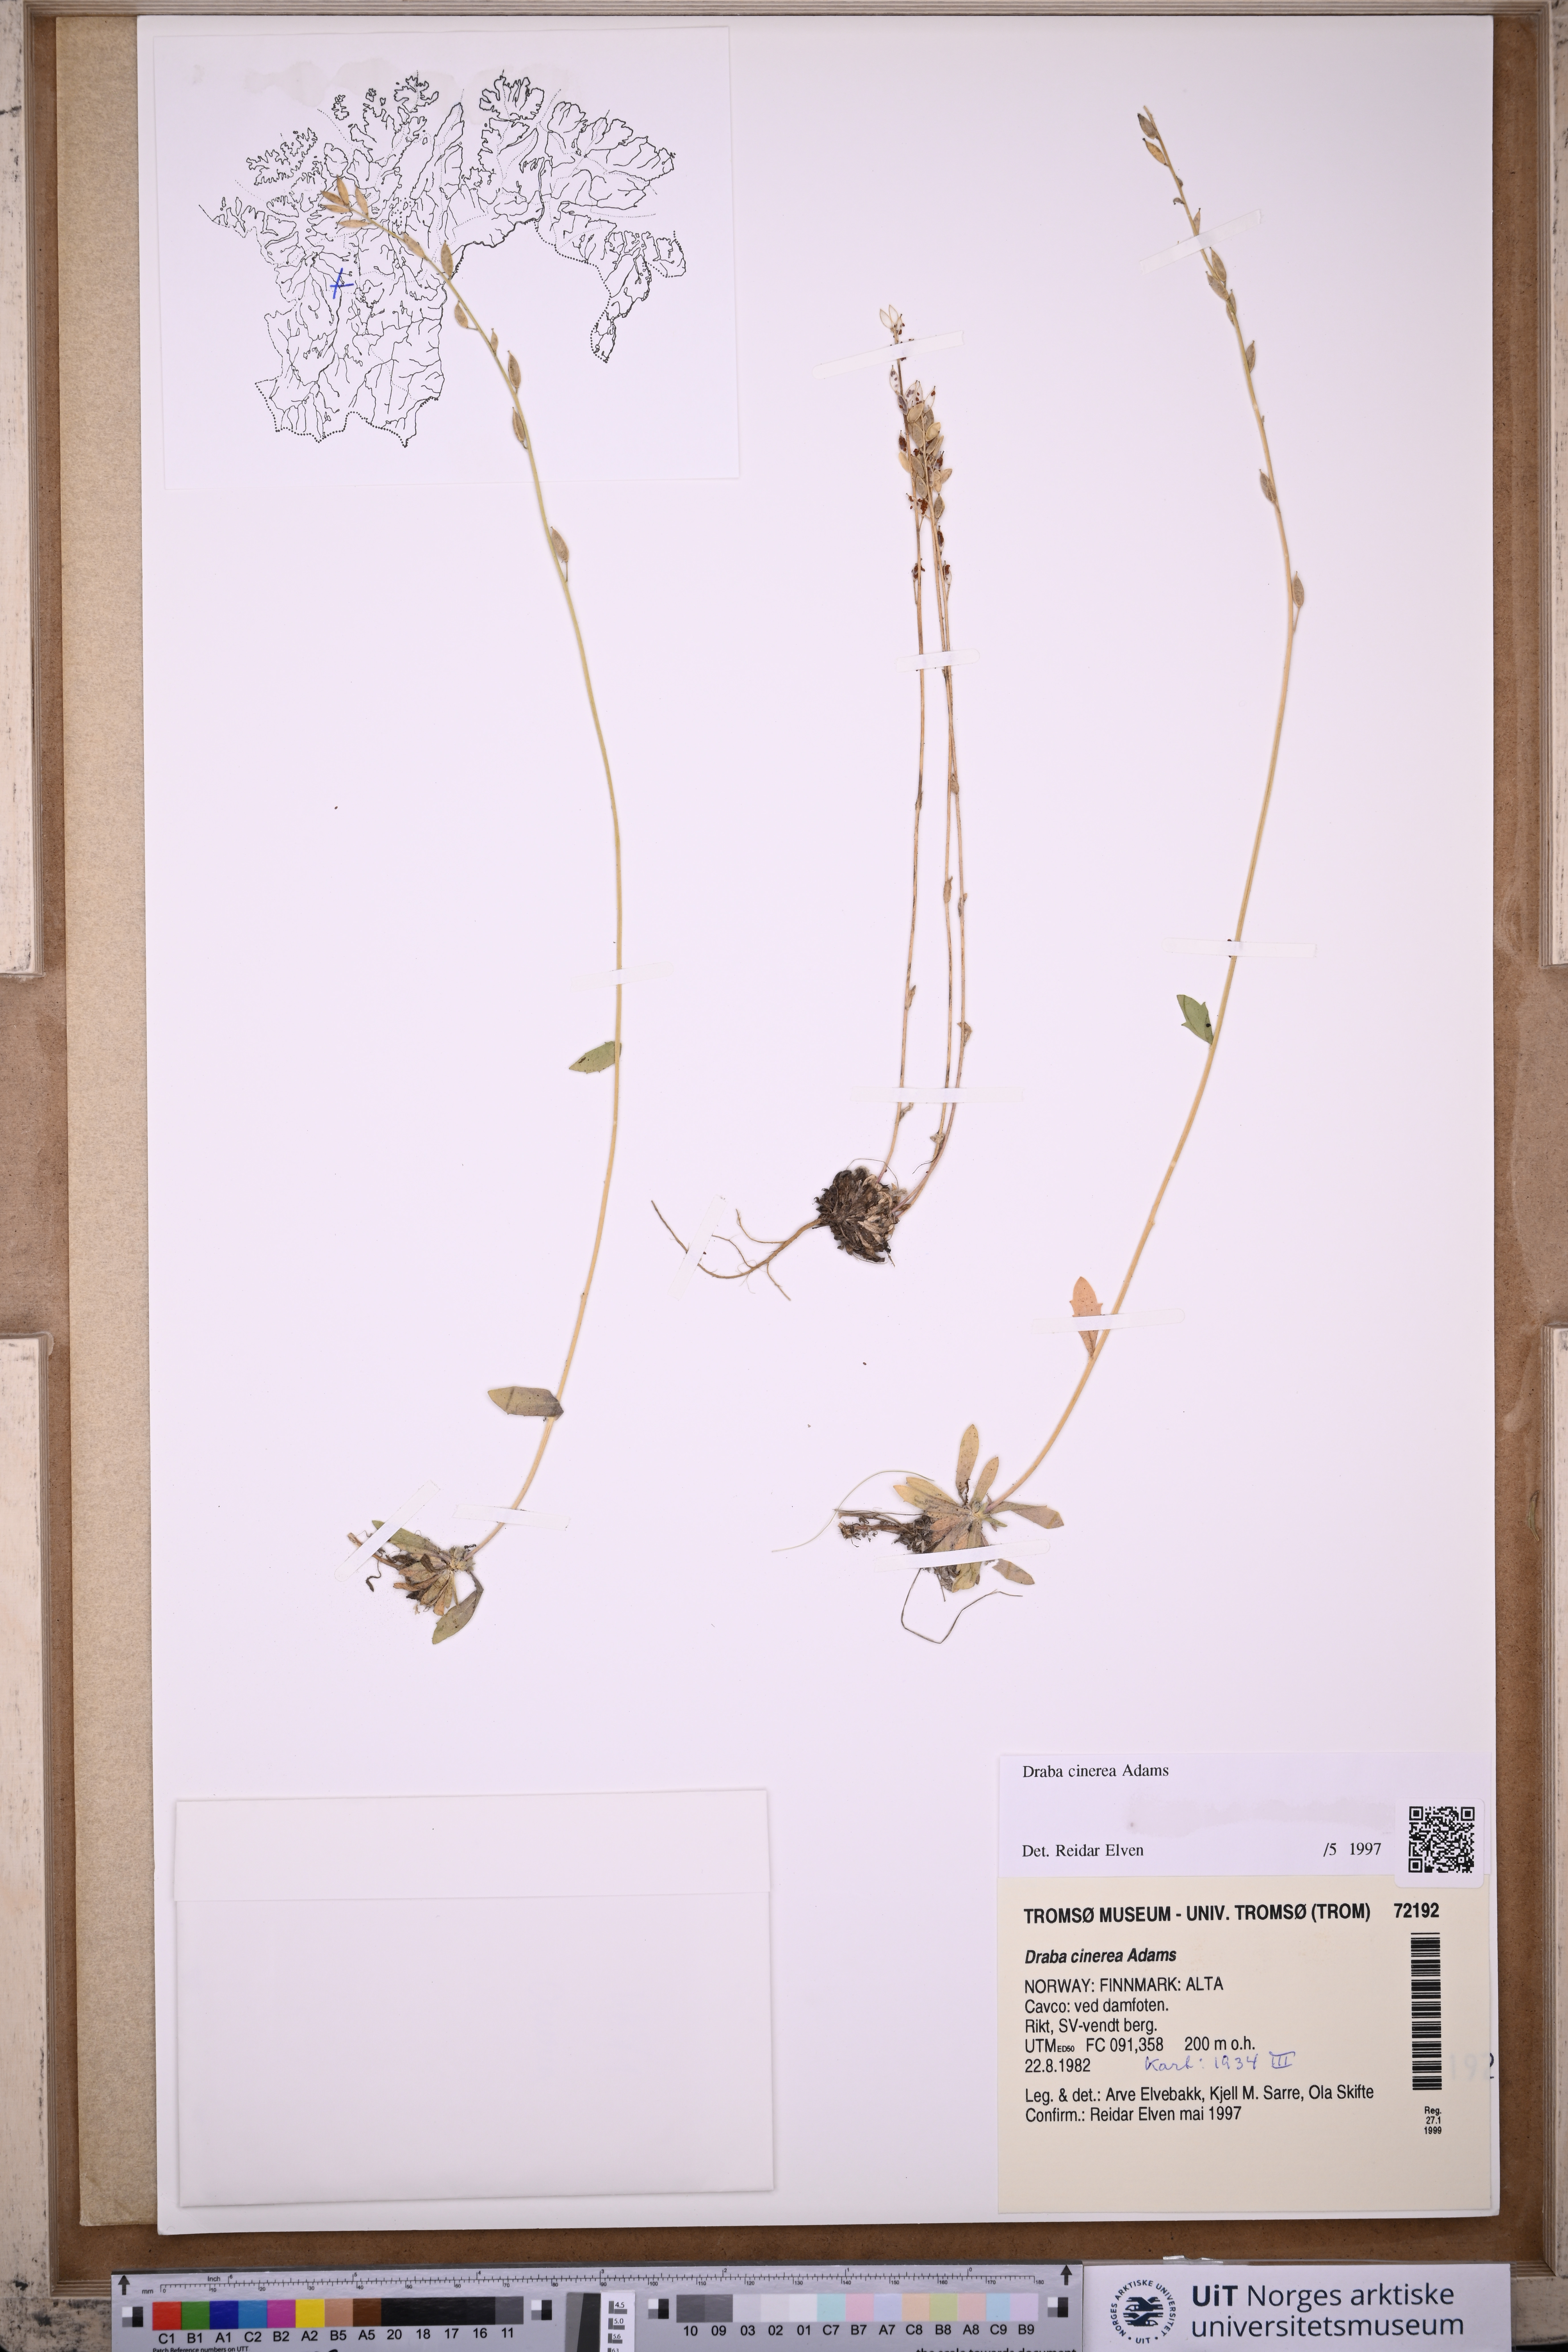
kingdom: Plantae
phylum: Tracheophyta
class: Magnoliopsida
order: Brassicales
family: Brassicaceae
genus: Draba
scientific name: Draba arctica
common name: Arctic draba
